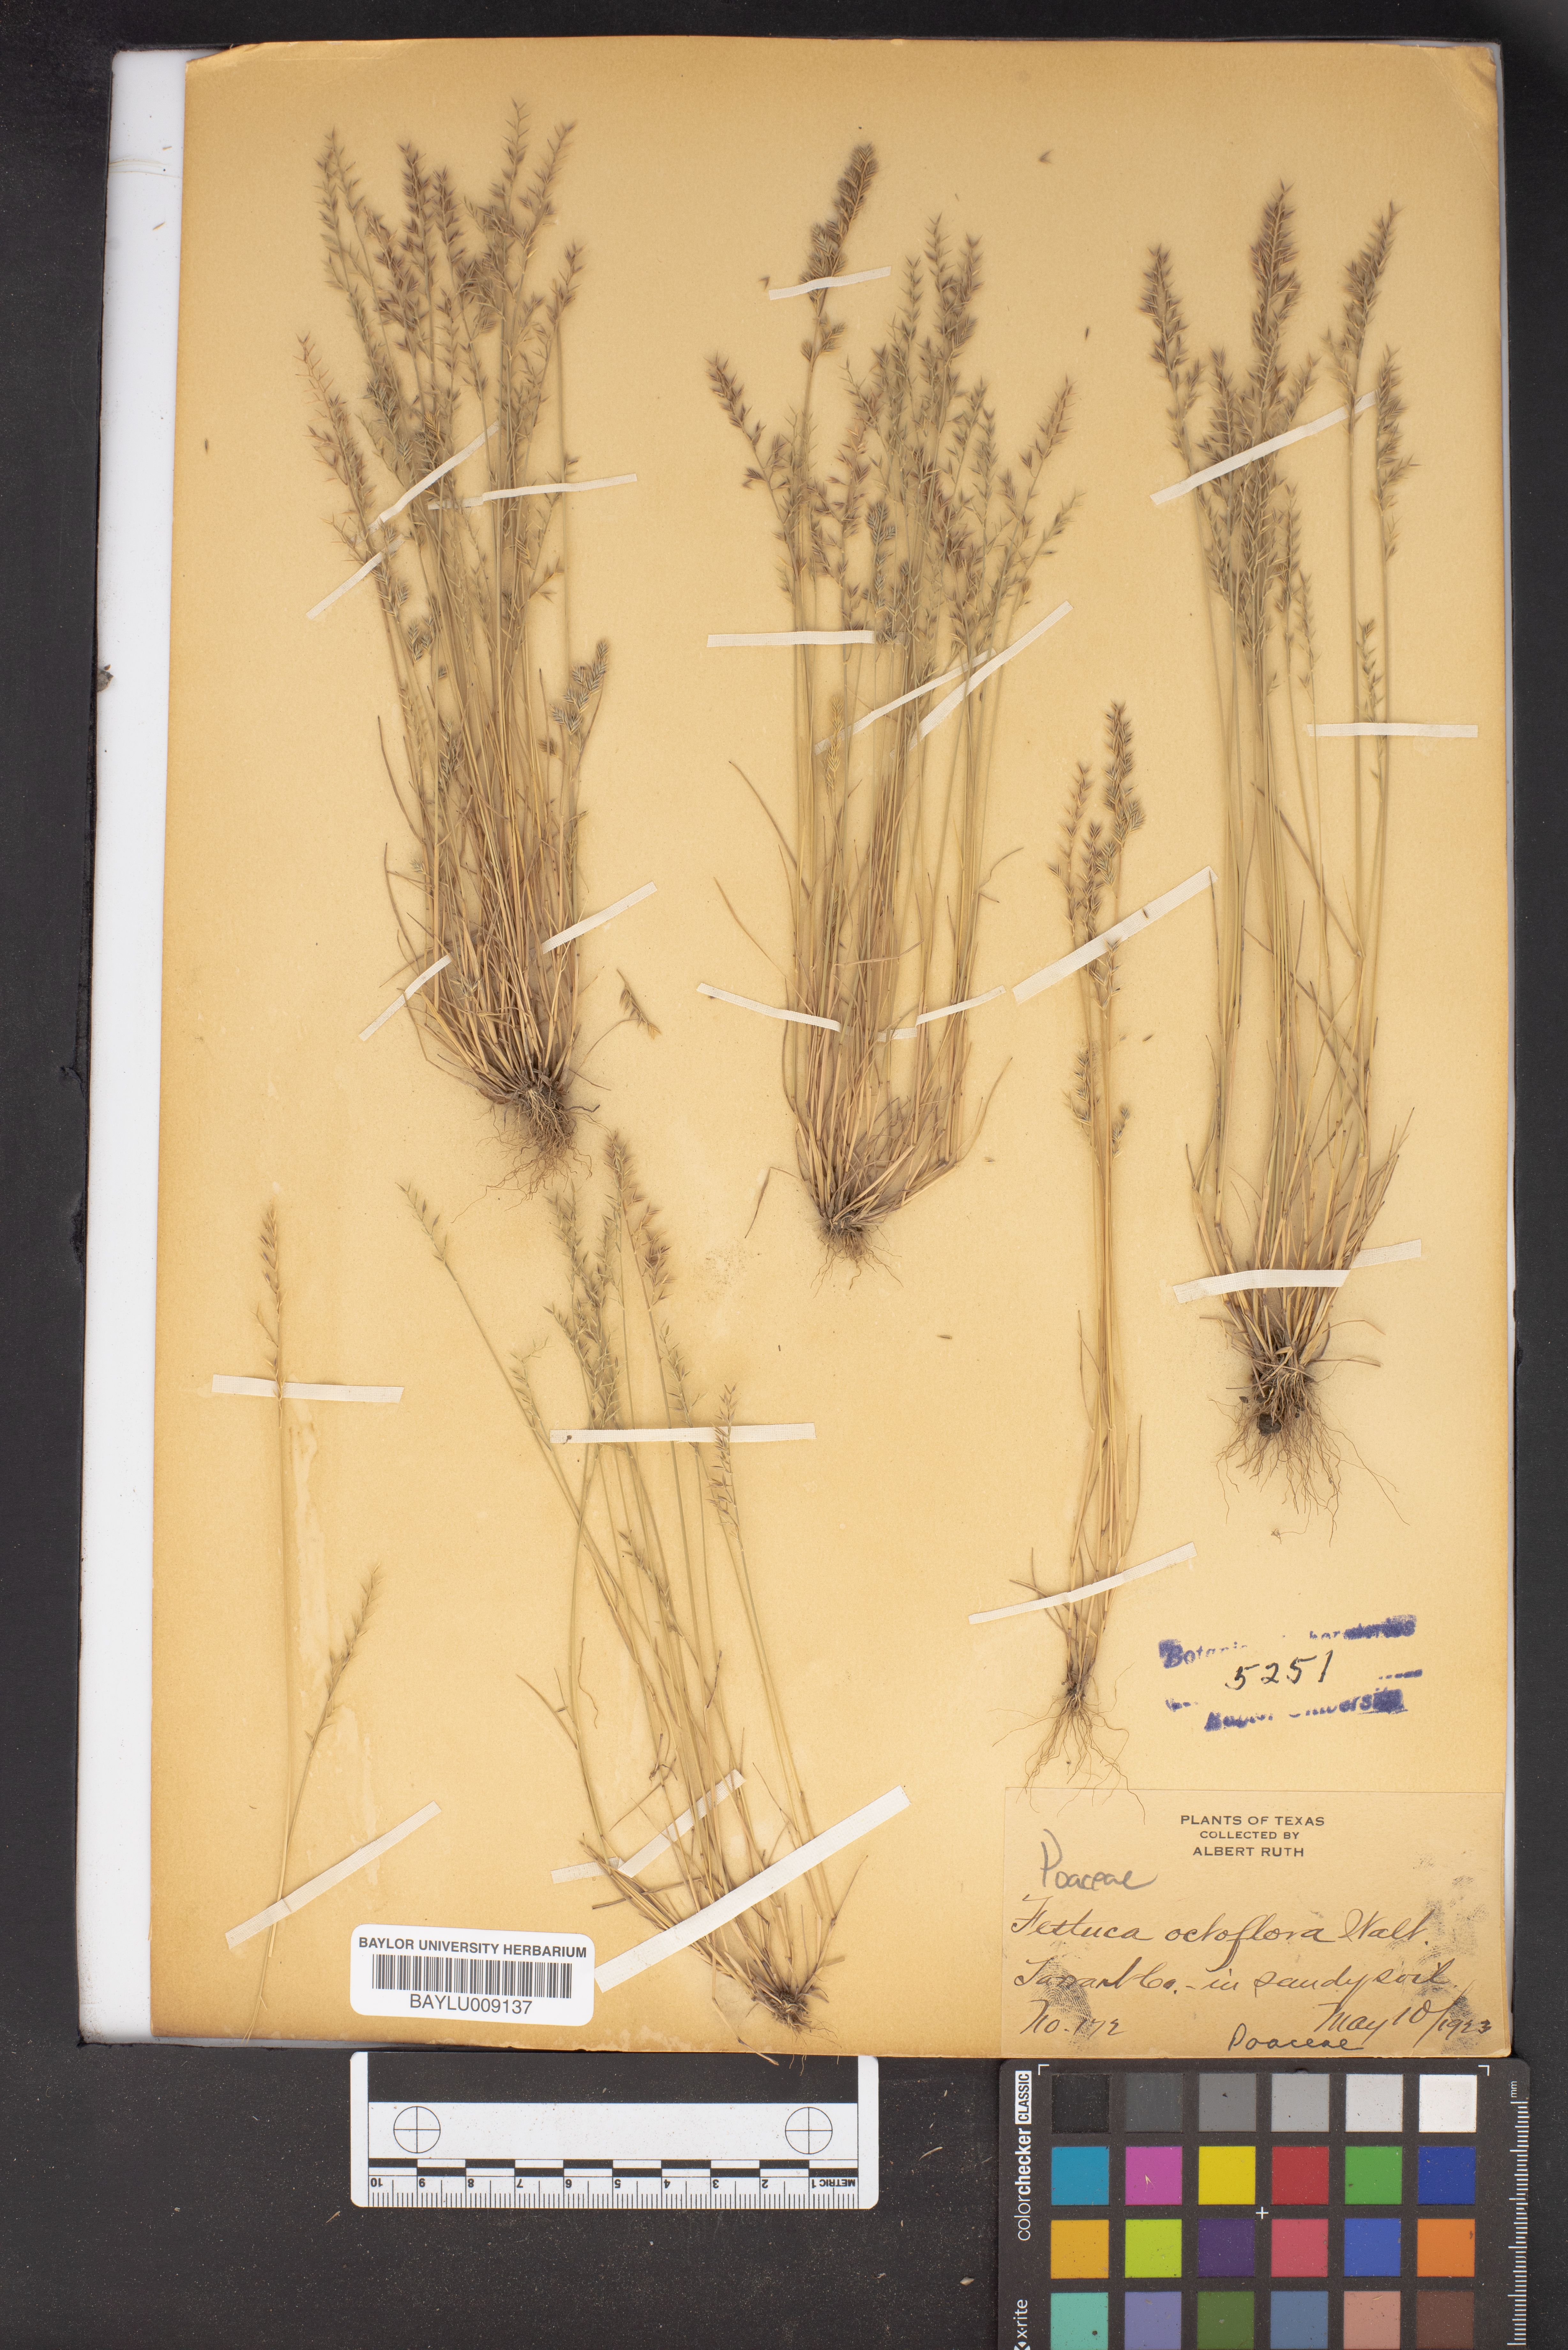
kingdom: Plantae
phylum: Tracheophyta
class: Liliopsida
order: Poales
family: Poaceae
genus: Festuca
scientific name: Festuca octoflora
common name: Sixweeks grass
